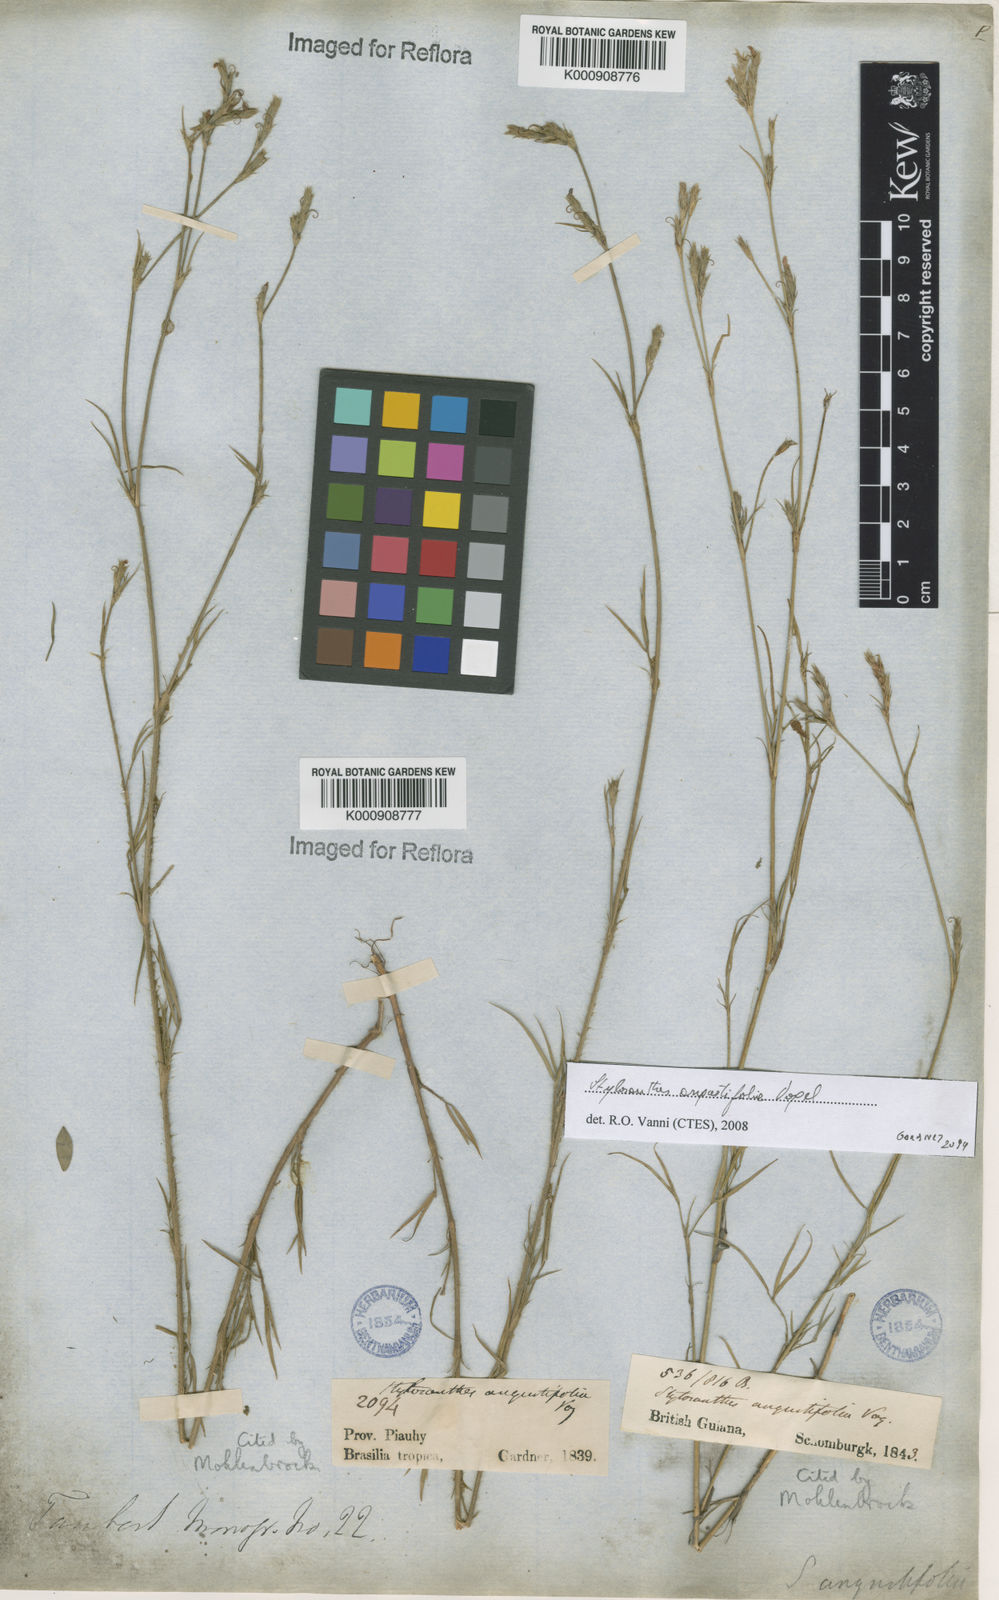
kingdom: Plantae
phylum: Tracheophyta
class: Magnoliopsida
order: Fabales
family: Fabaceae
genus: Stylosanthes
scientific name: Stylosanthes angustifolia
